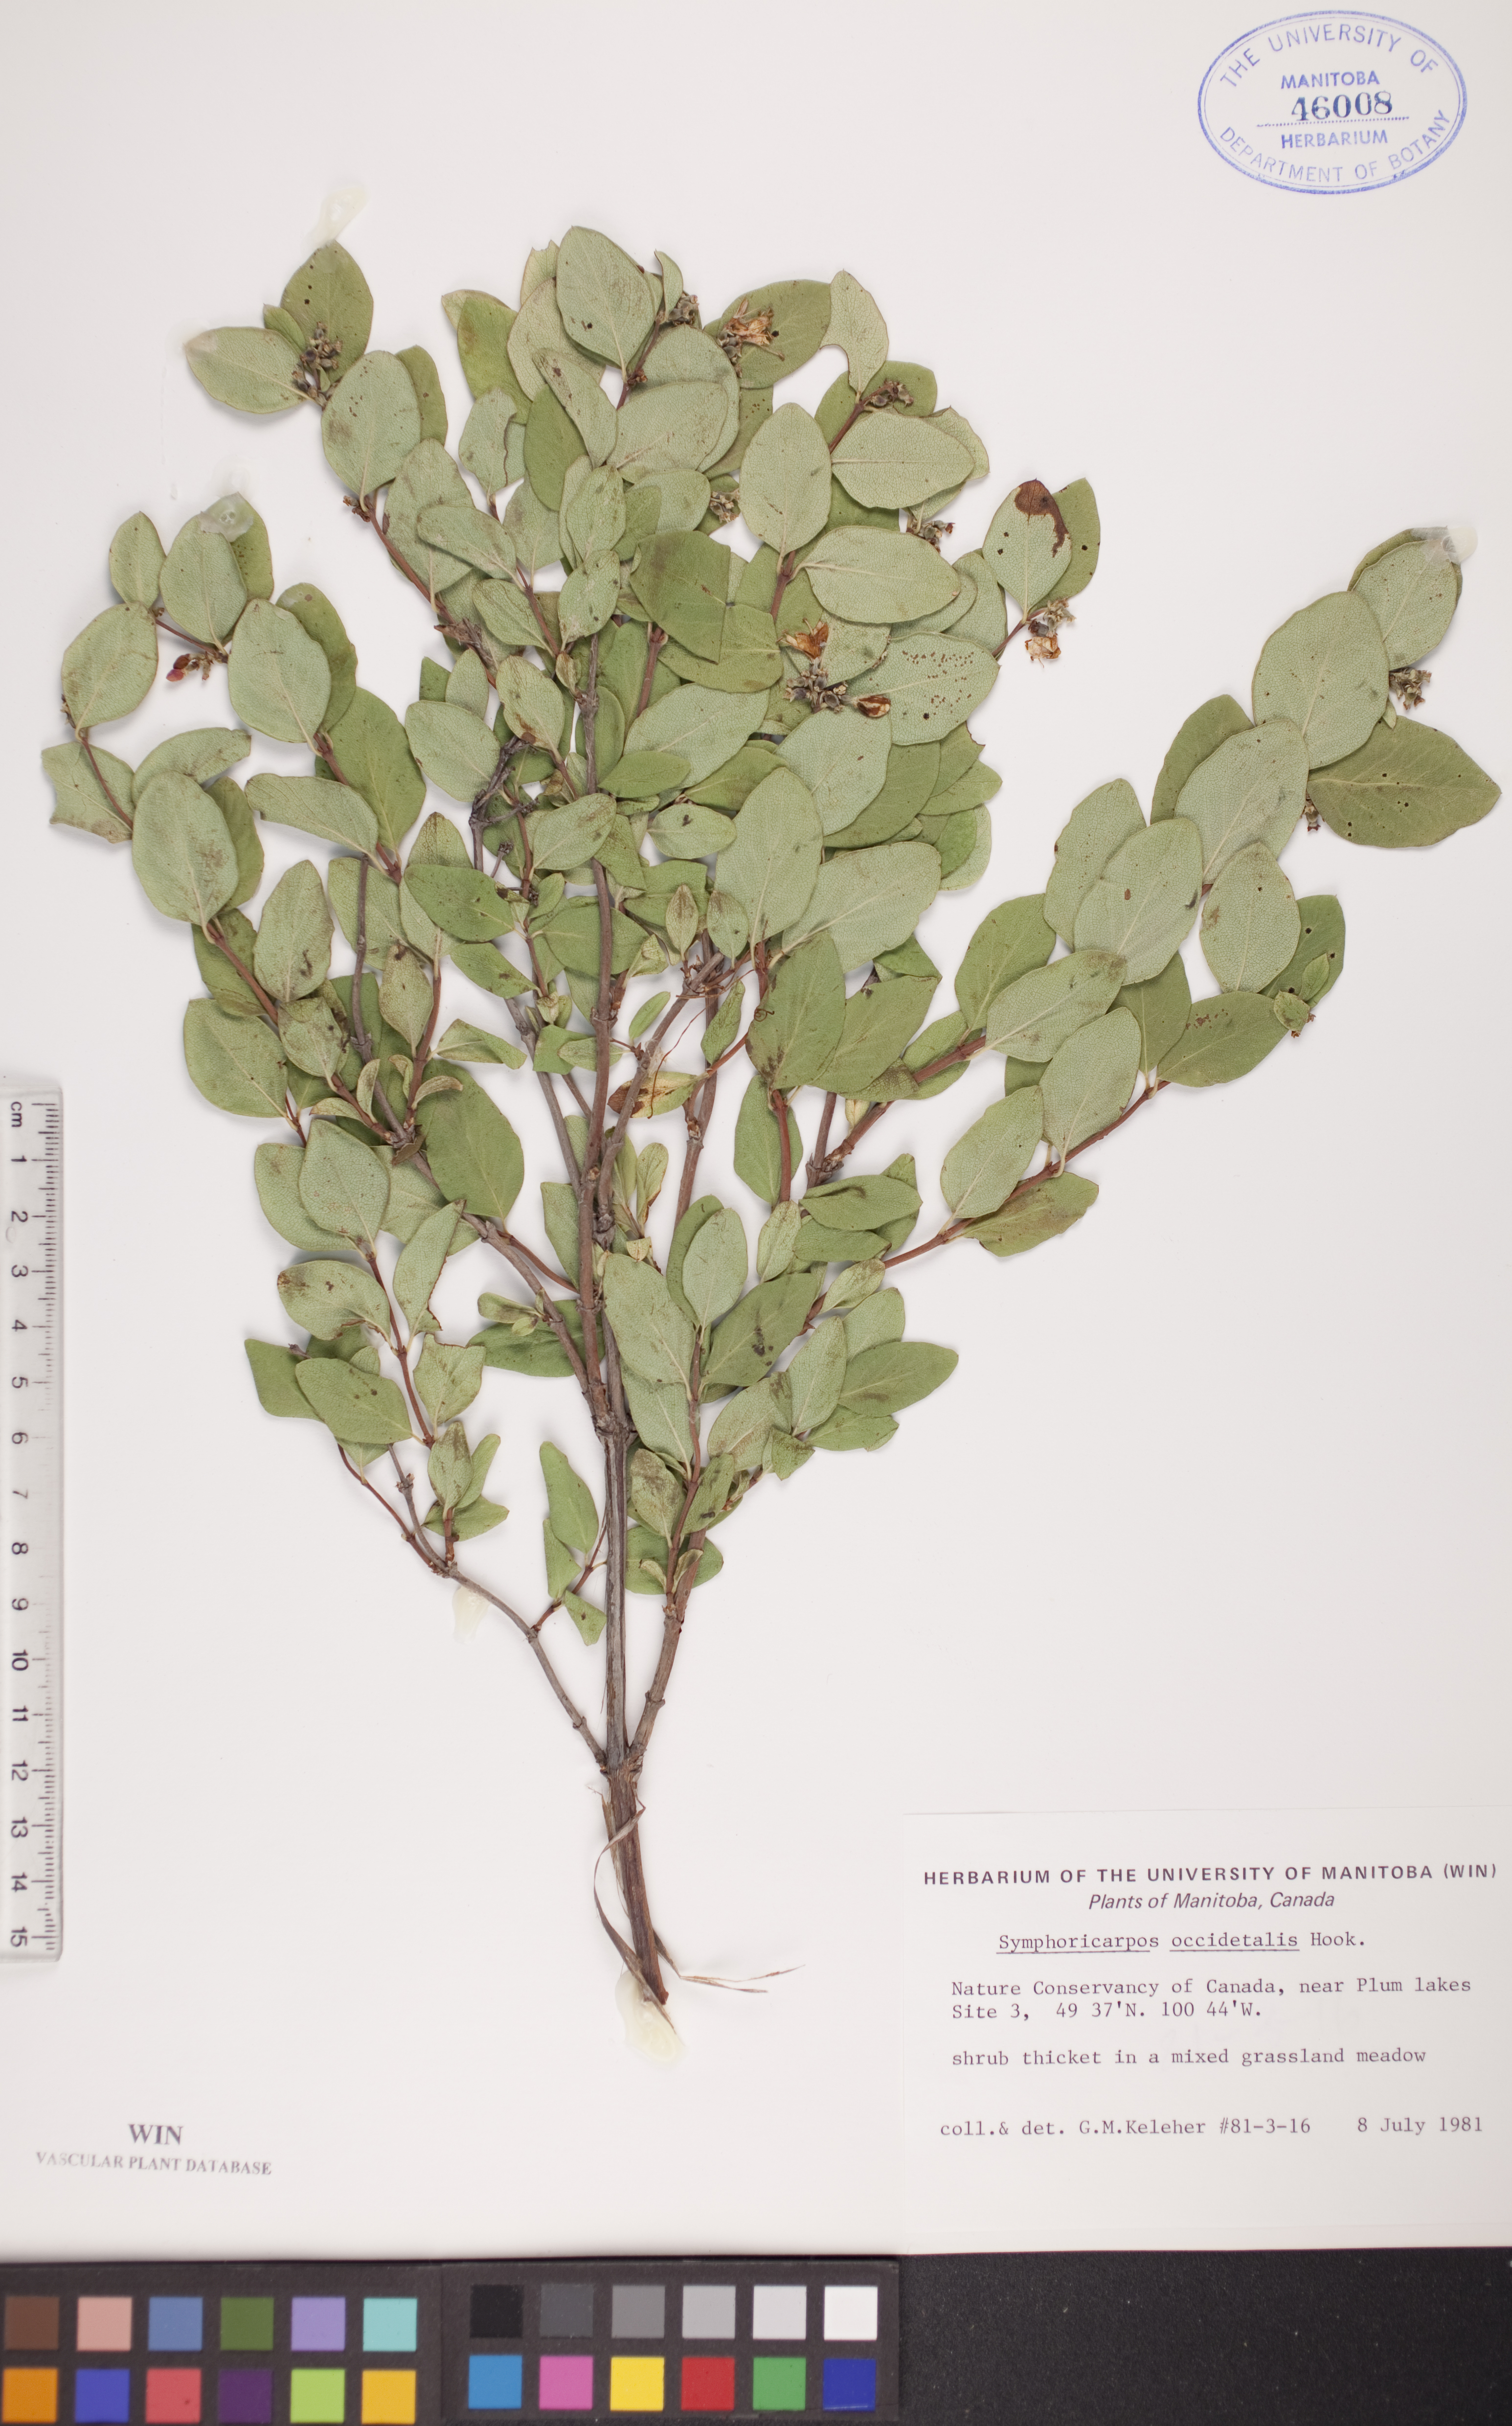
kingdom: Plantae
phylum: Tracheophyta
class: Magnoliopsida
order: Dipsacales
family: Caprifoliaceae
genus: Symphoricarpos
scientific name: Symphoricarpos occidentalis
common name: Wolfberry
